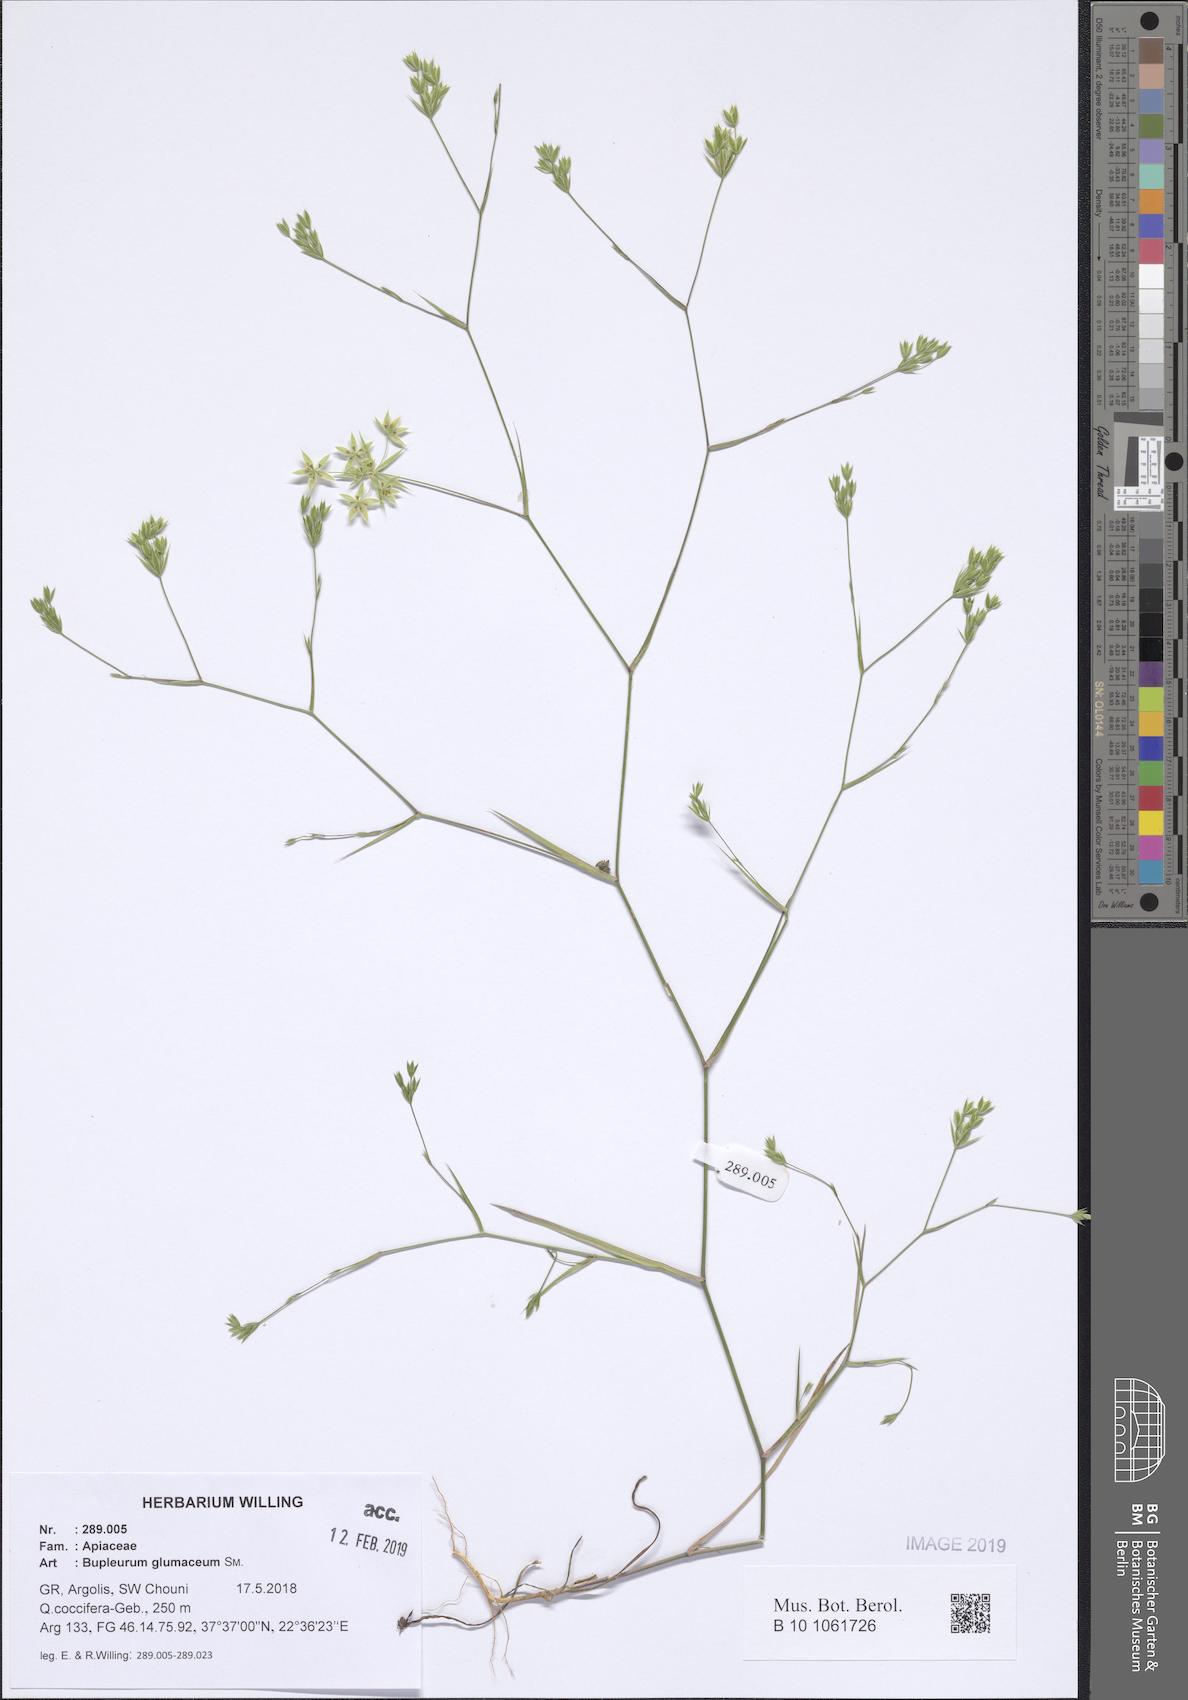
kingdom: Plantae
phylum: Tracheophyta
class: Magnoliopsida
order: Apiales
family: Apiaceae
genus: Bupleurum
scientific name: Bupleurum glumaceum
